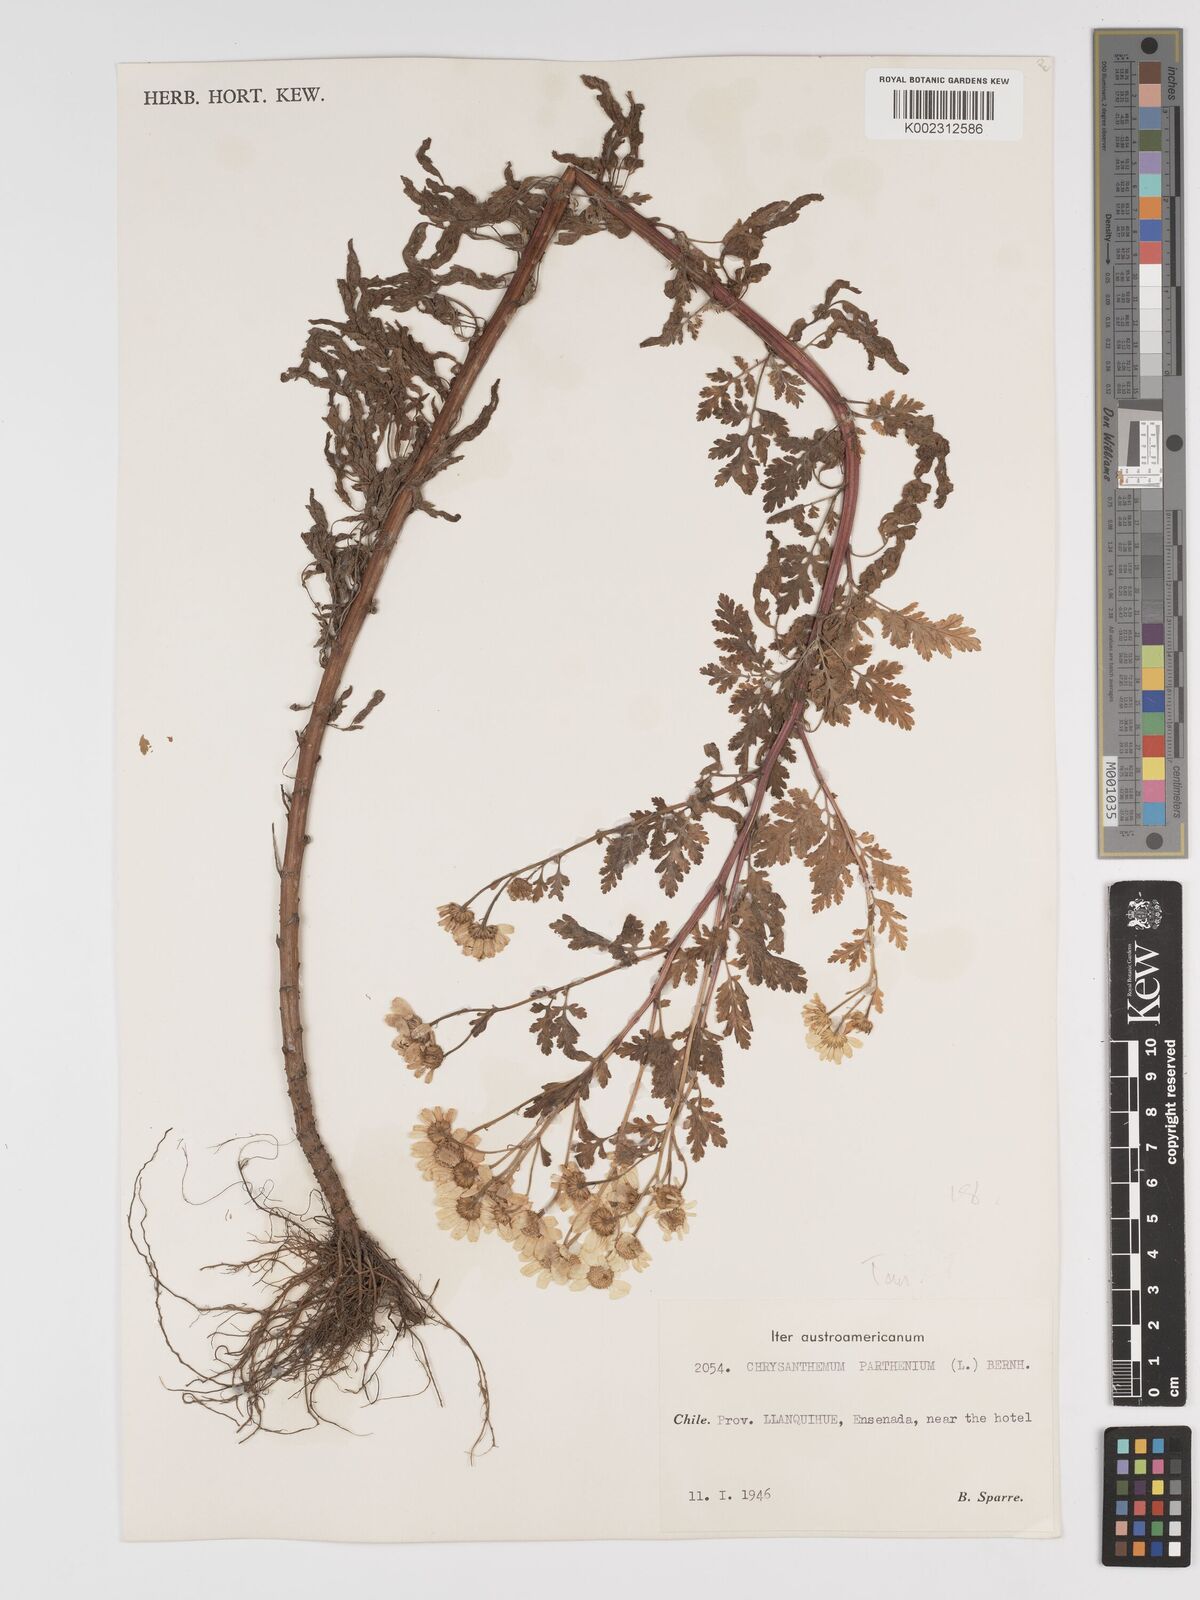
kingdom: Plantae
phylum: Tracheophyta
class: Magnoliopsida
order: Asterales
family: Asteraceae
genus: Tanacetum
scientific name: Tanacetum parthenium
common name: Feverfew
